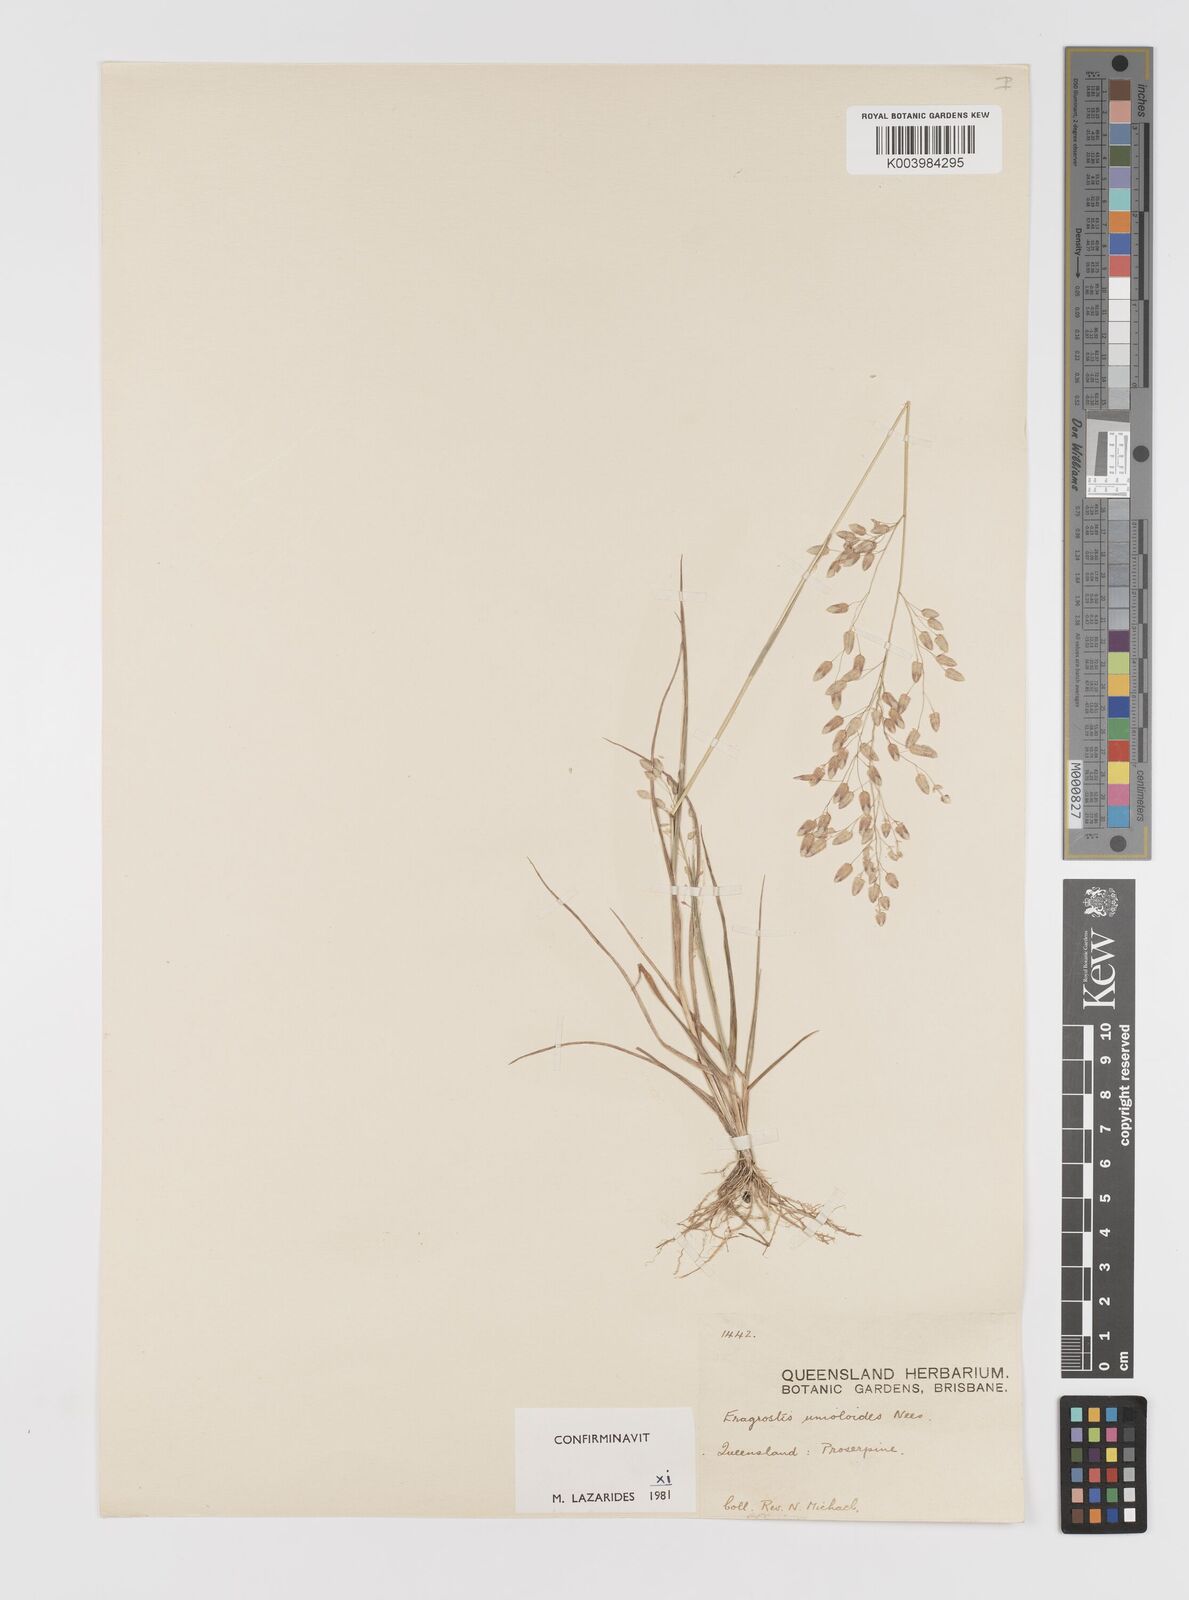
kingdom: Plantae
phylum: Tracheophyta
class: Liliopsida
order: Poales
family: Poaceae
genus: Eragrostis
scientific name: Eragrostis unioloides
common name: Chinese lovegrass
